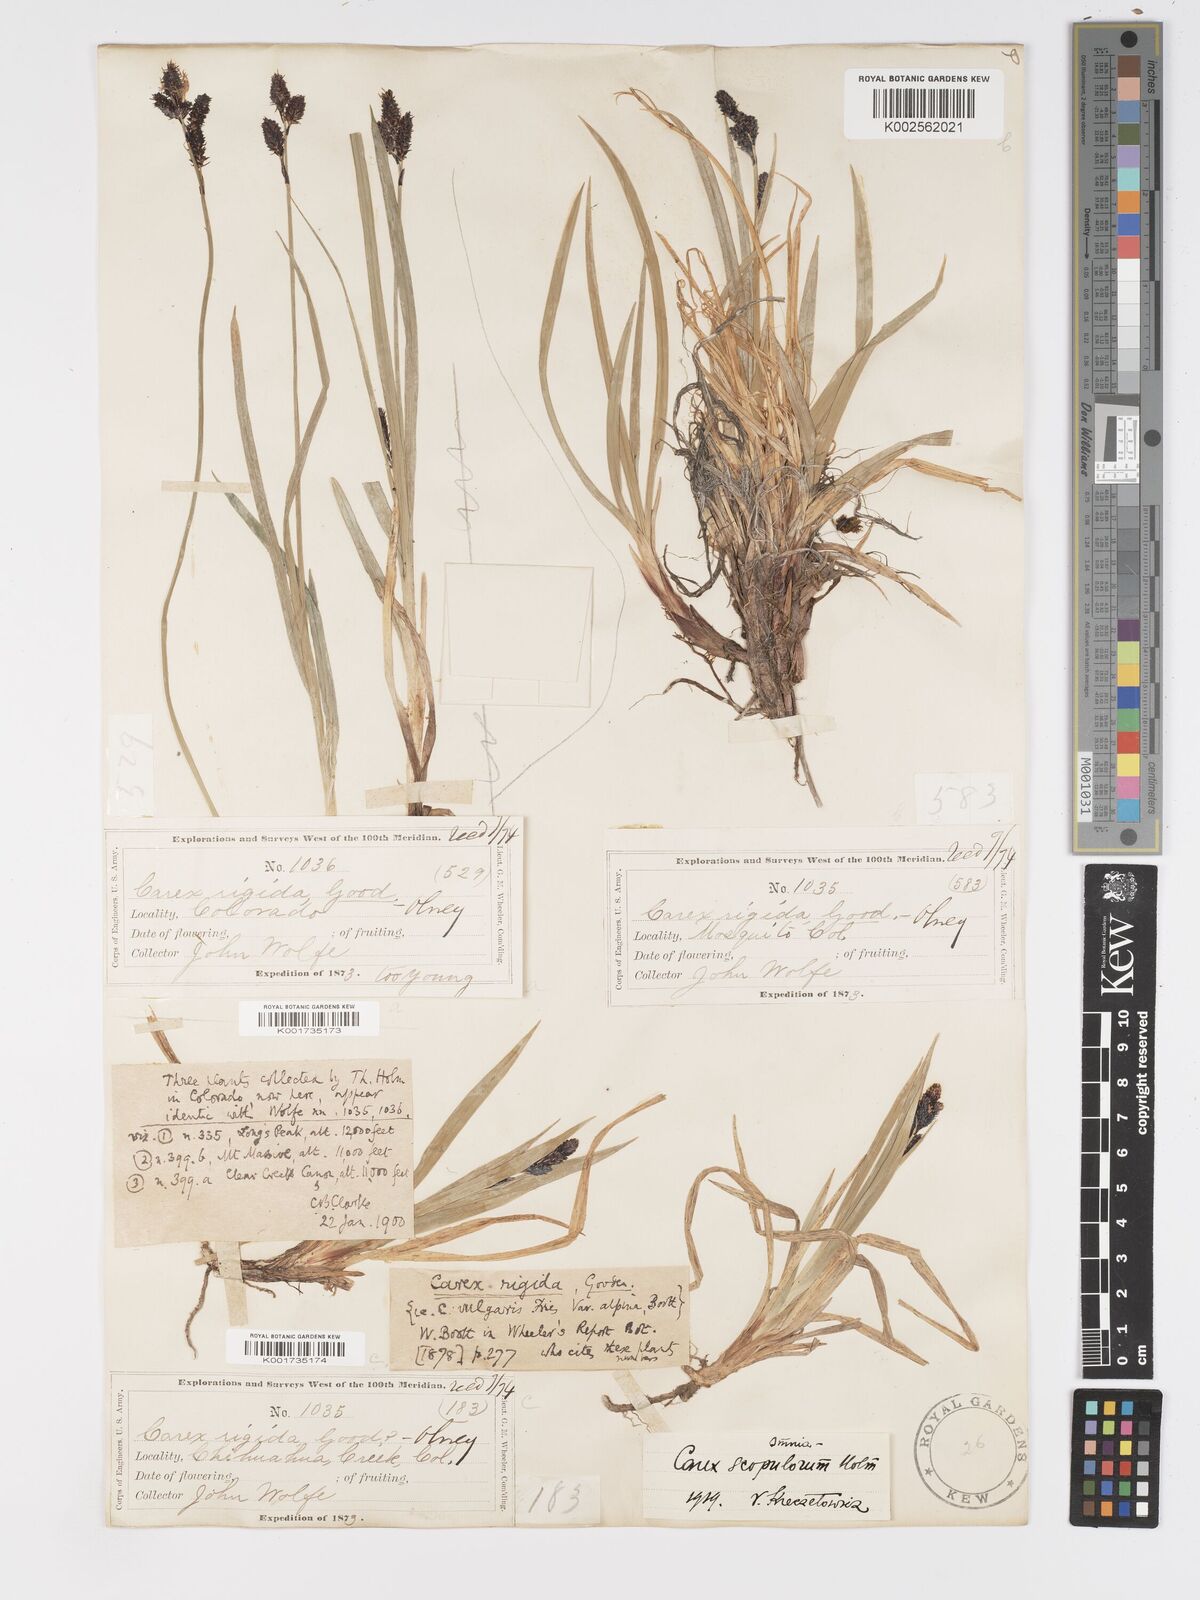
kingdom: Plantae
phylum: Tracheophyta
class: Liliopsida
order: Poales
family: Cyperaceae
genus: Carex
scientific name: Carex scopulorum
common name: Holm's rocky mountain sedge
